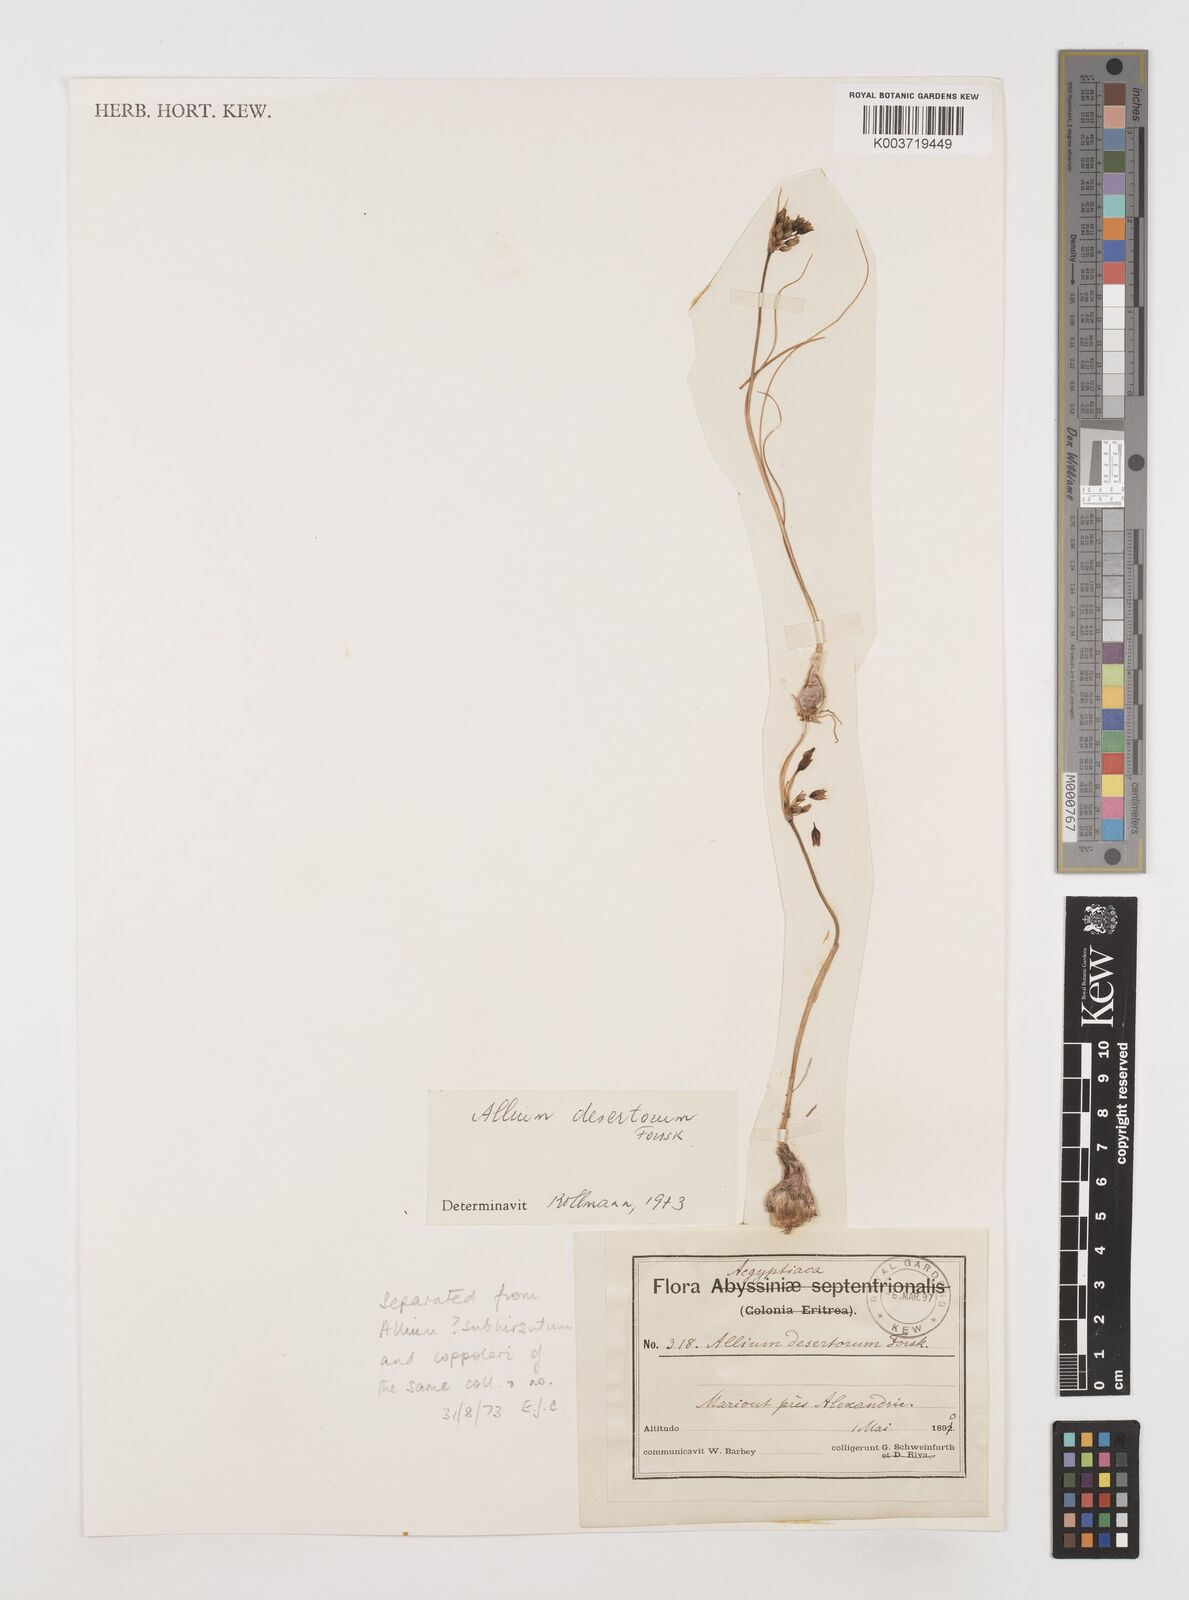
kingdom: Plantae
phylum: Tracheophyta
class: Liliopsida
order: Asparagales
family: Amaryllidaceae
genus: Allium
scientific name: Allium desertorum
